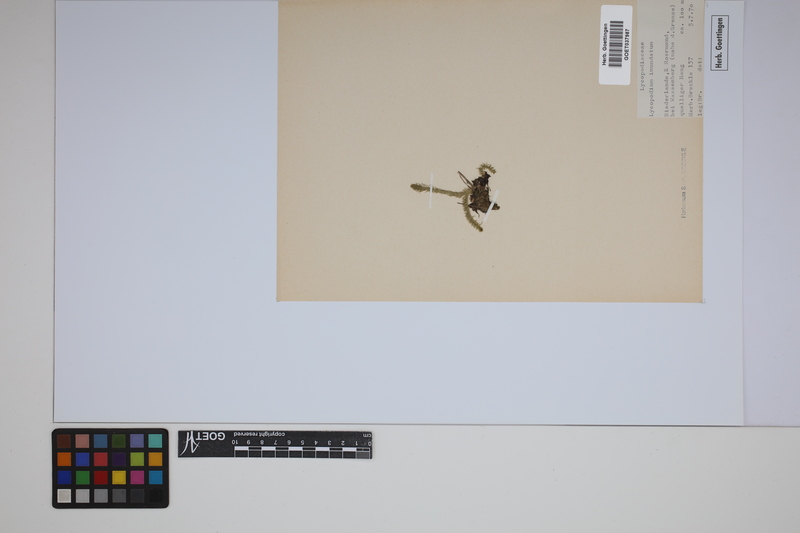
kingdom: Plantae
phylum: Tracheophyta
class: Lycopodiopsida
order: Lycopodiales
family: Lycopodiaceae
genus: Lycopodiella
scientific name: Lycopodiella inundata
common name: Marsh clubmoss
